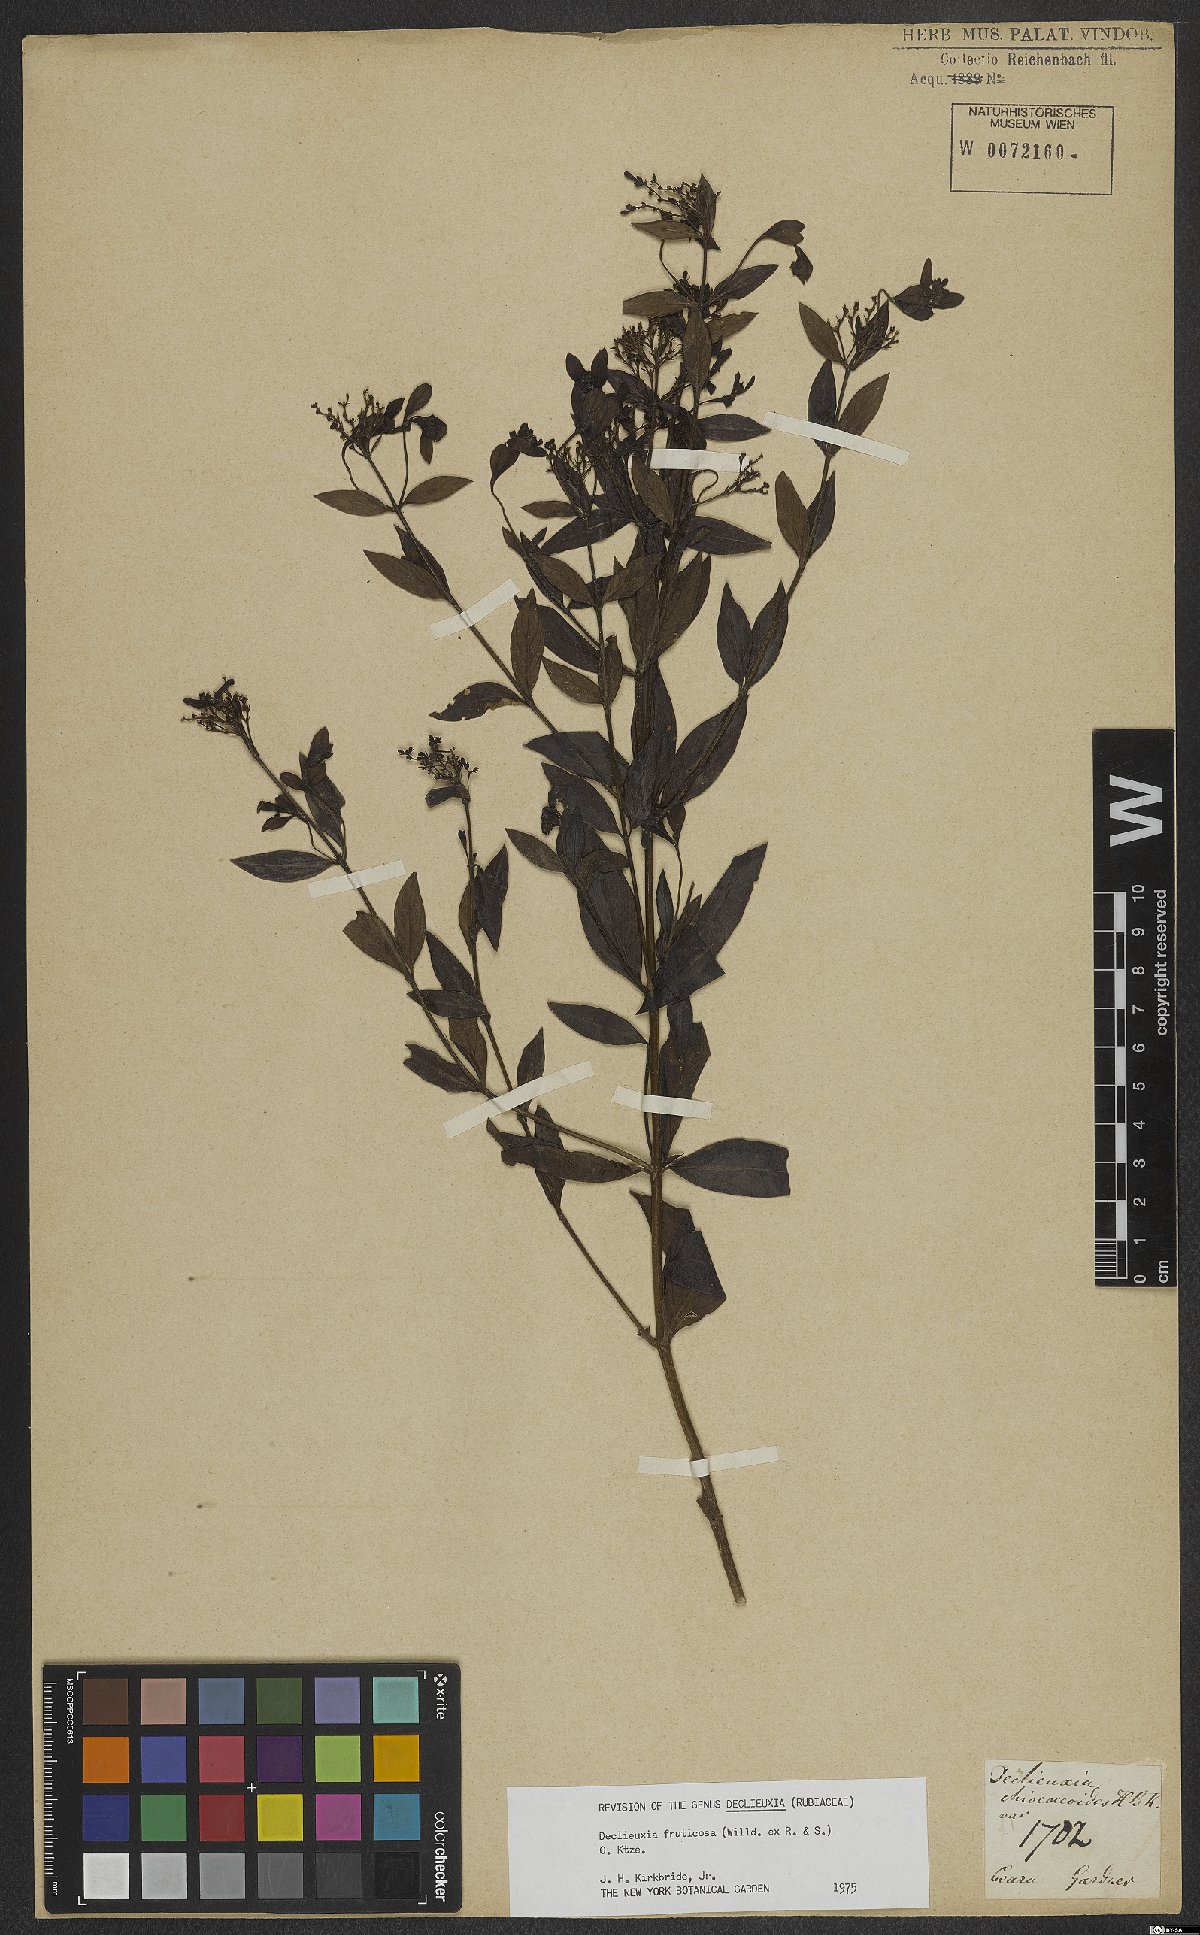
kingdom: Plantae
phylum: Tracheophyta
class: Magnoliopsida
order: Gentianales
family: Rubiaceae
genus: Declieuxia
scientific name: Declieuxia fruticosa
